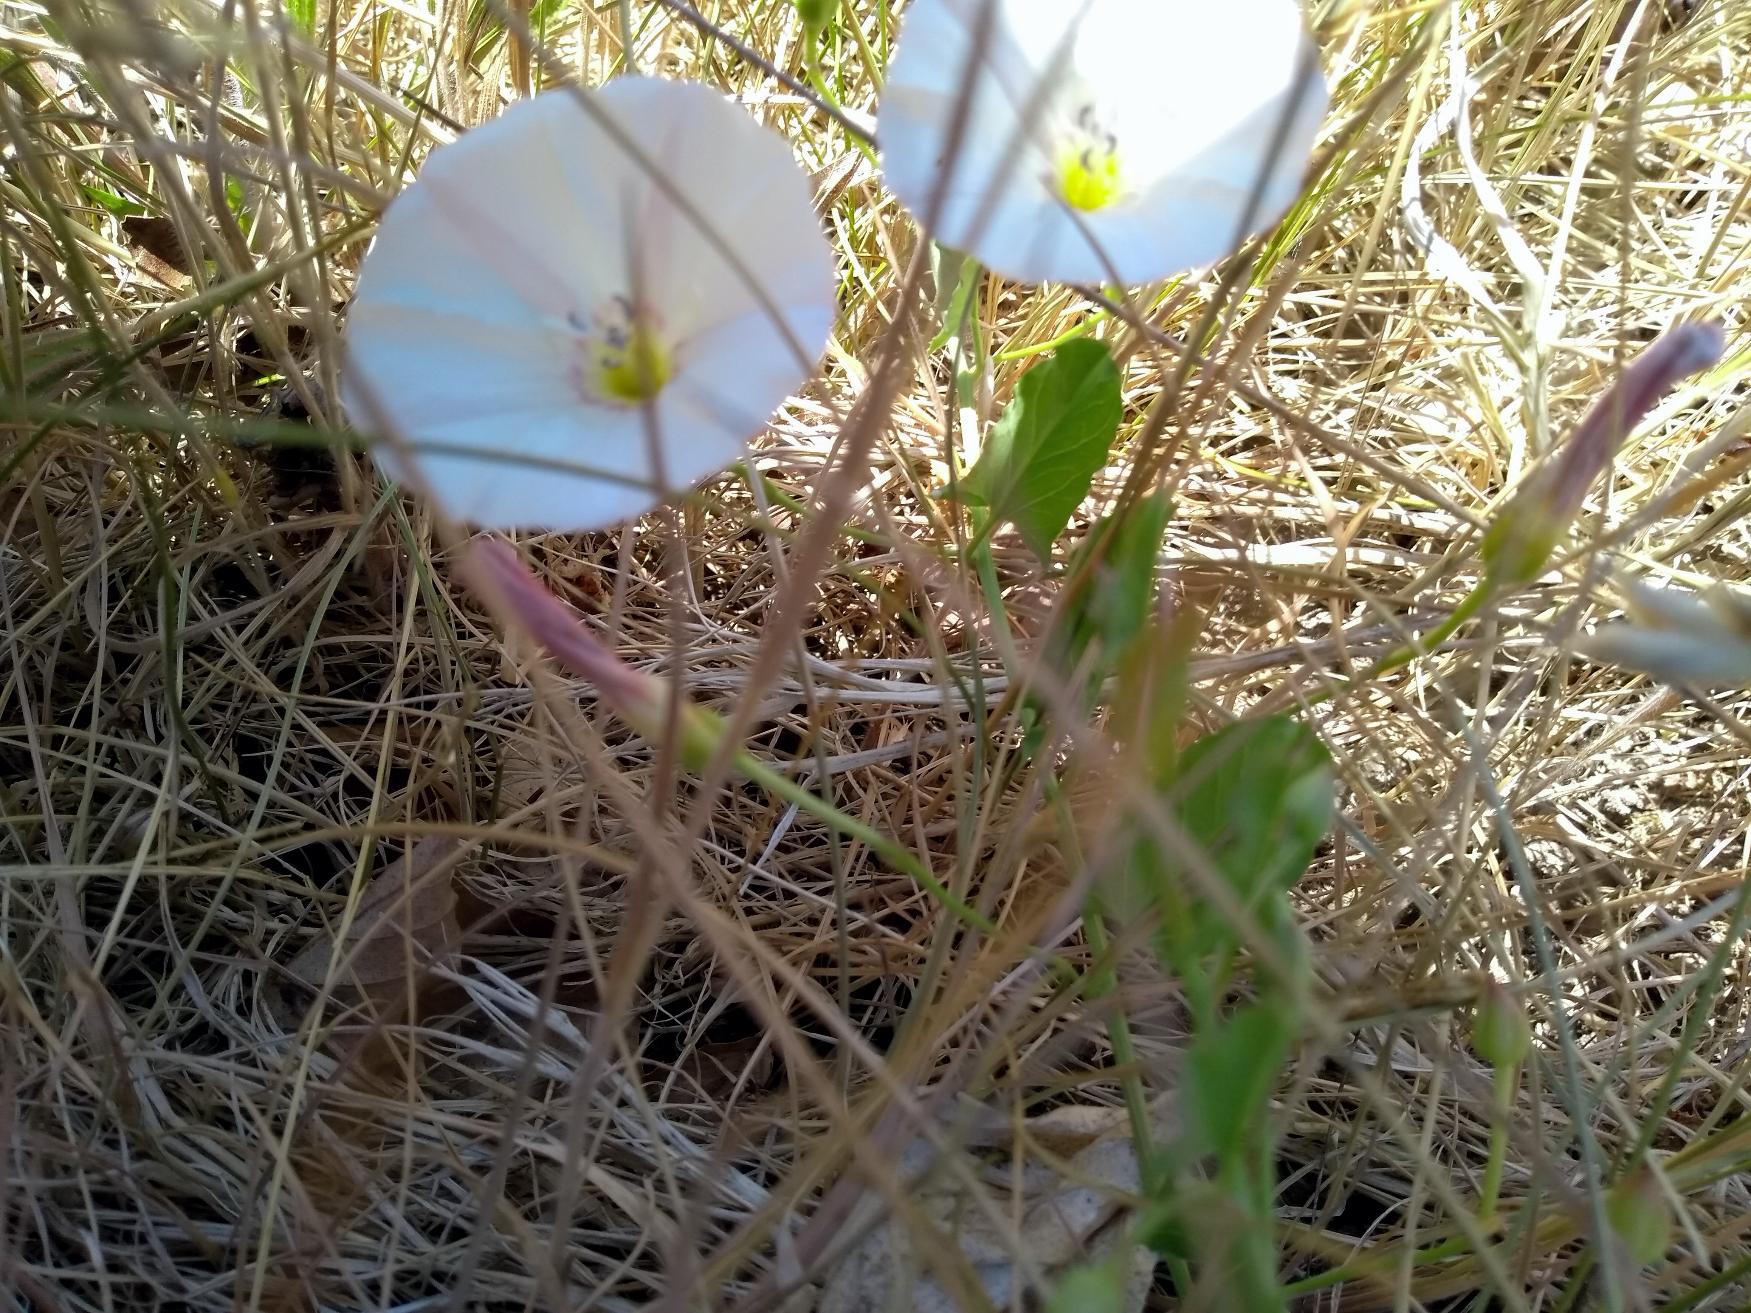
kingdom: Plantae
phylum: Tracheophyta
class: Magnoliopsida
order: Solanales
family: Convolvulaceae
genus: Convolvulus
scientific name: Convolvulus arvensis
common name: Ager-snerle
